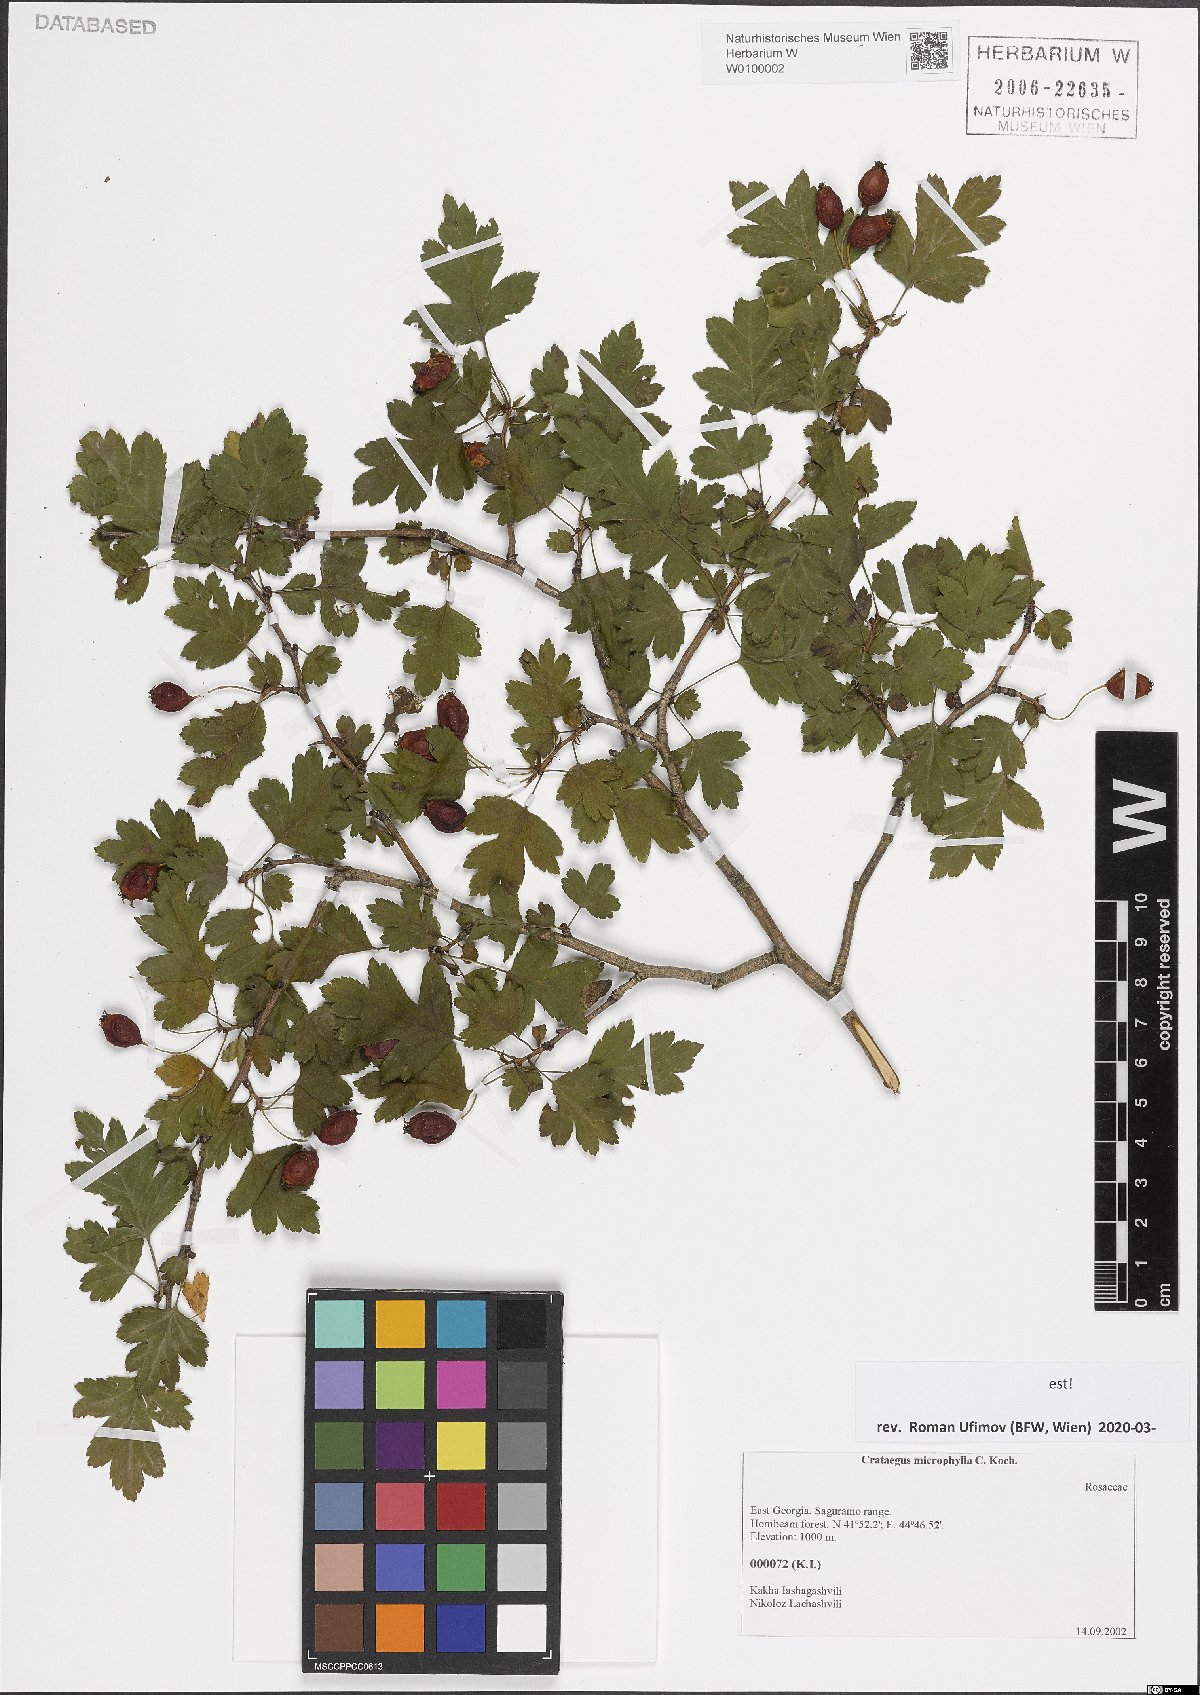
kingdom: Plantae
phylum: Tracheophyta
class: Magnoliopsida
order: Rosales
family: Rosaceae
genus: Crataegus
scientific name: Crataegus microphylla
